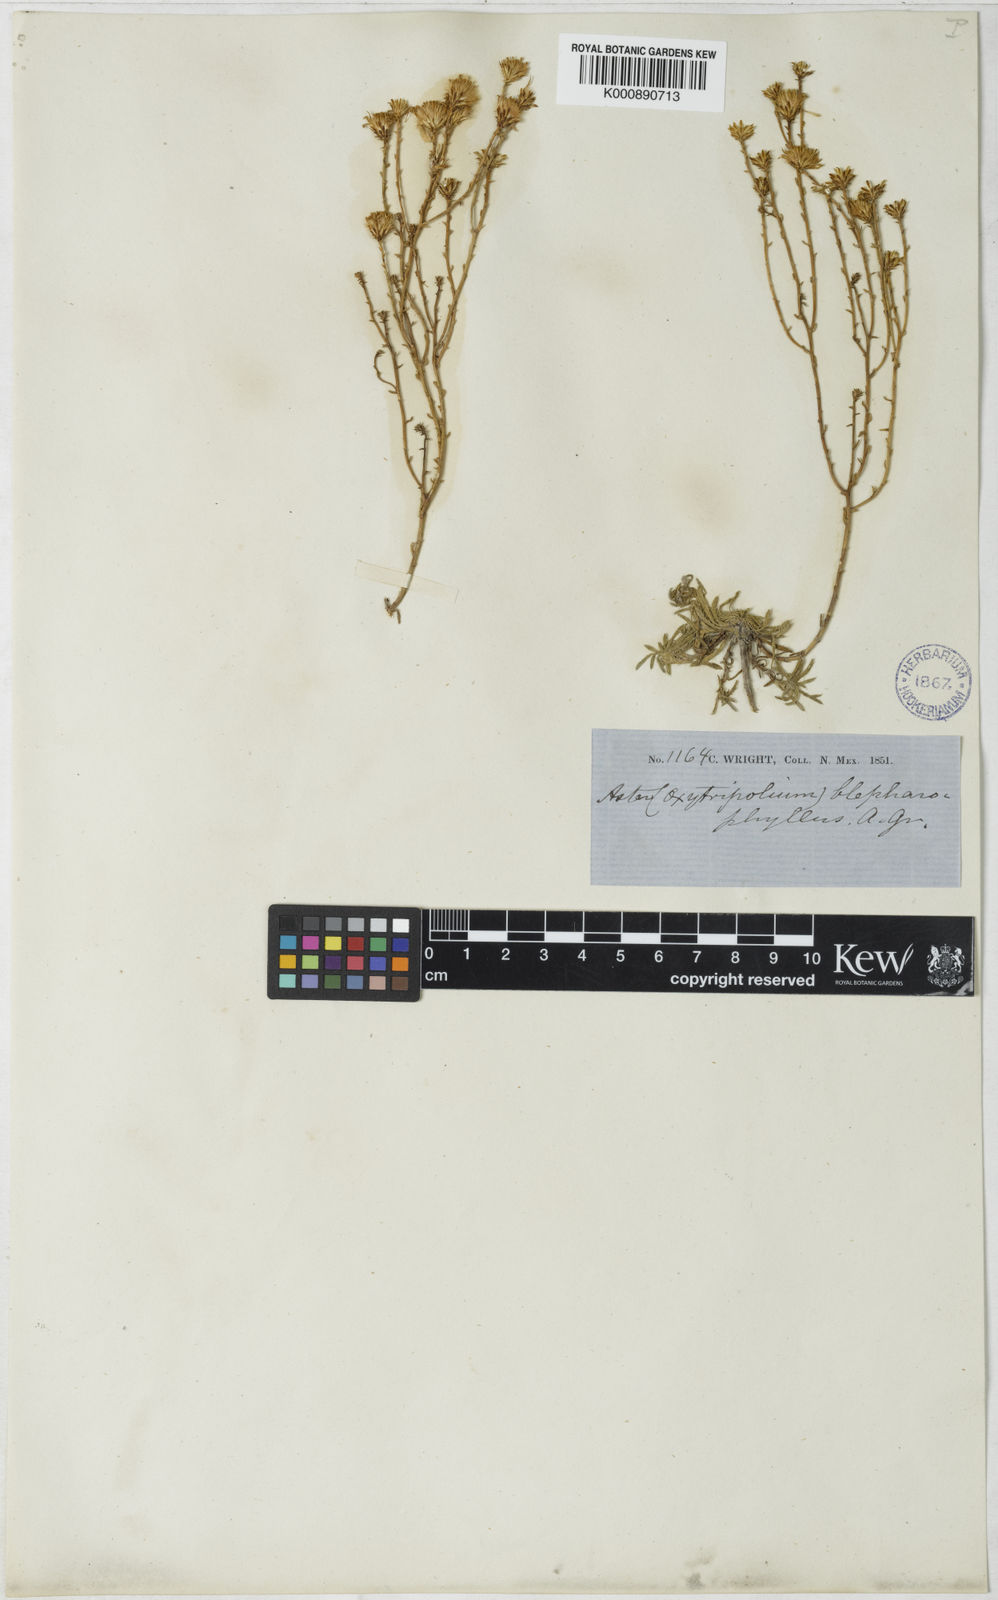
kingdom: Plantae
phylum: Tracheophyta
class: Magnoliopsida
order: Asterales
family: Asteraceae
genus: Aster
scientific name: Aster
